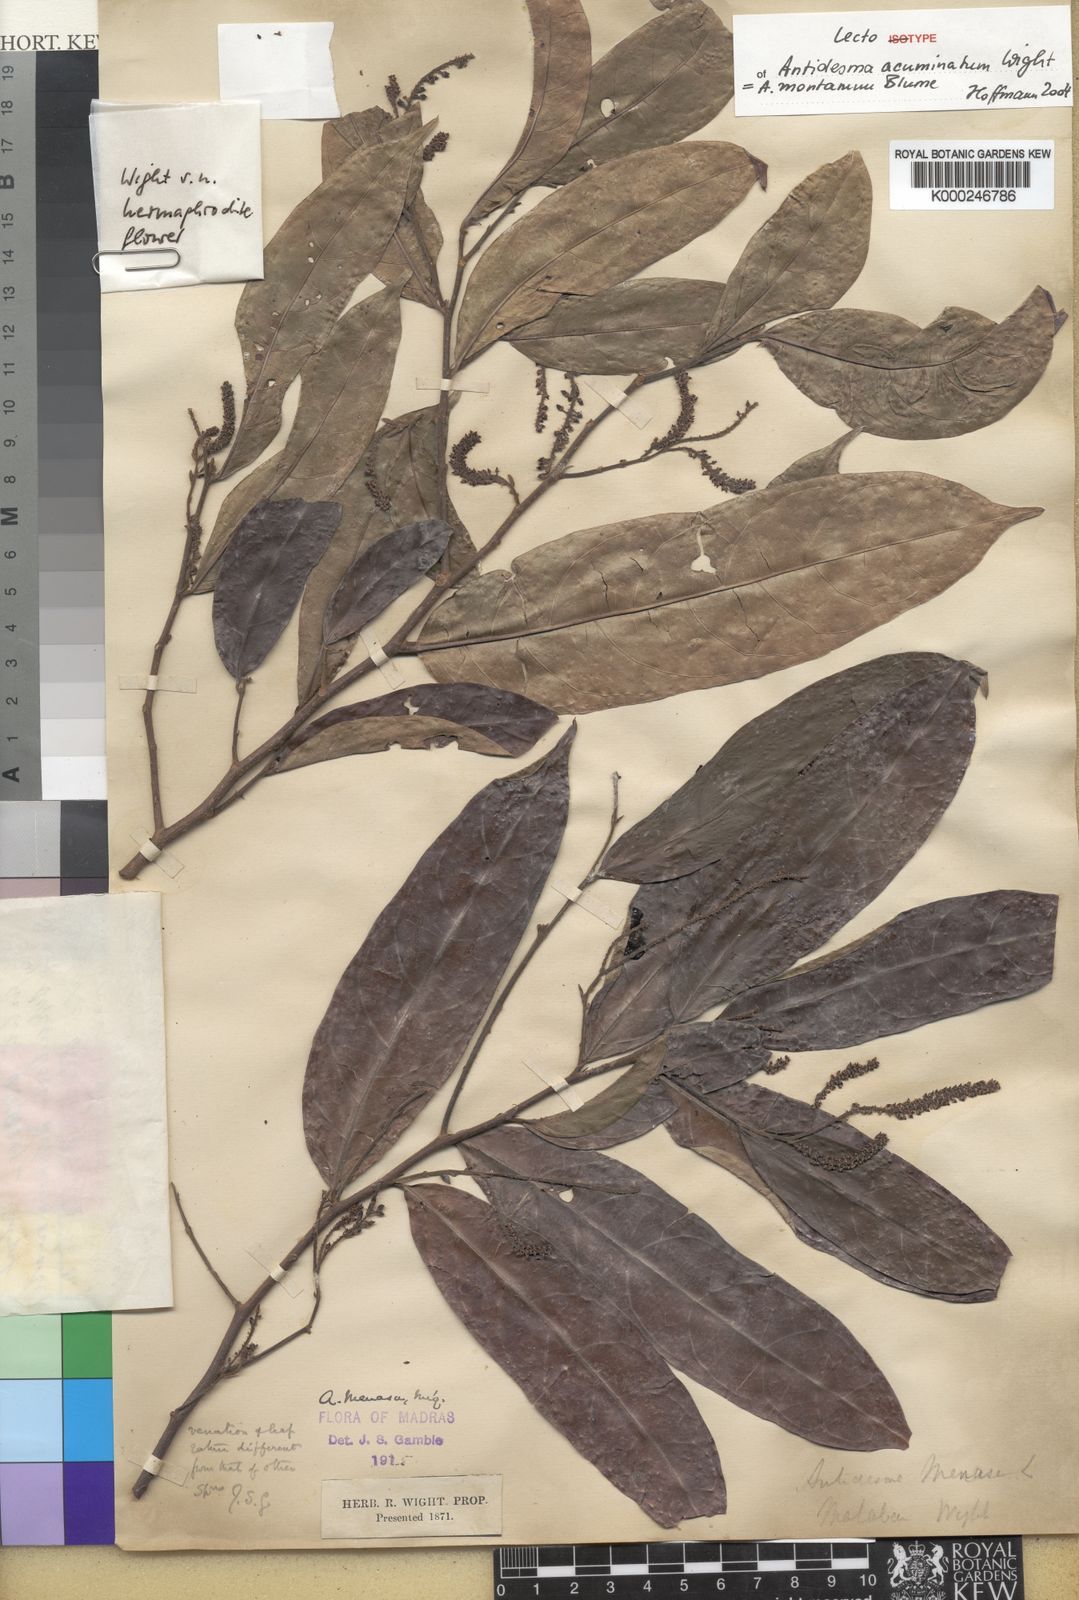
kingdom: Plantae
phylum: Tracheophyta
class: Magnoliopsida
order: Malpighiales
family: Phyllanthaceae
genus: Antidesma
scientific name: Antidesma montanum
